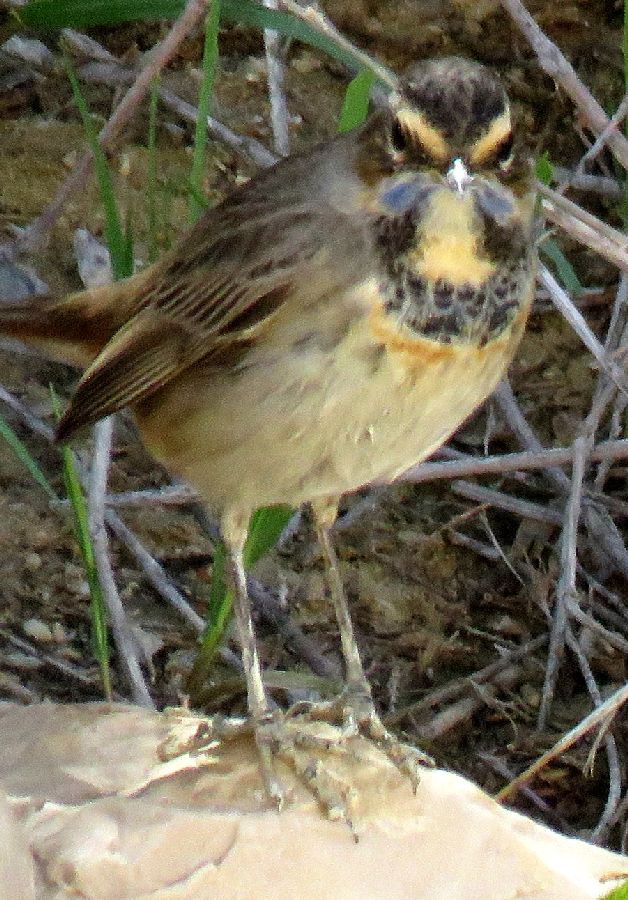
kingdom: Animalia
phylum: Chordata
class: Aves
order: Passeriformes
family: Muscicapidae
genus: Luscinia
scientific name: Luscinia svecica
